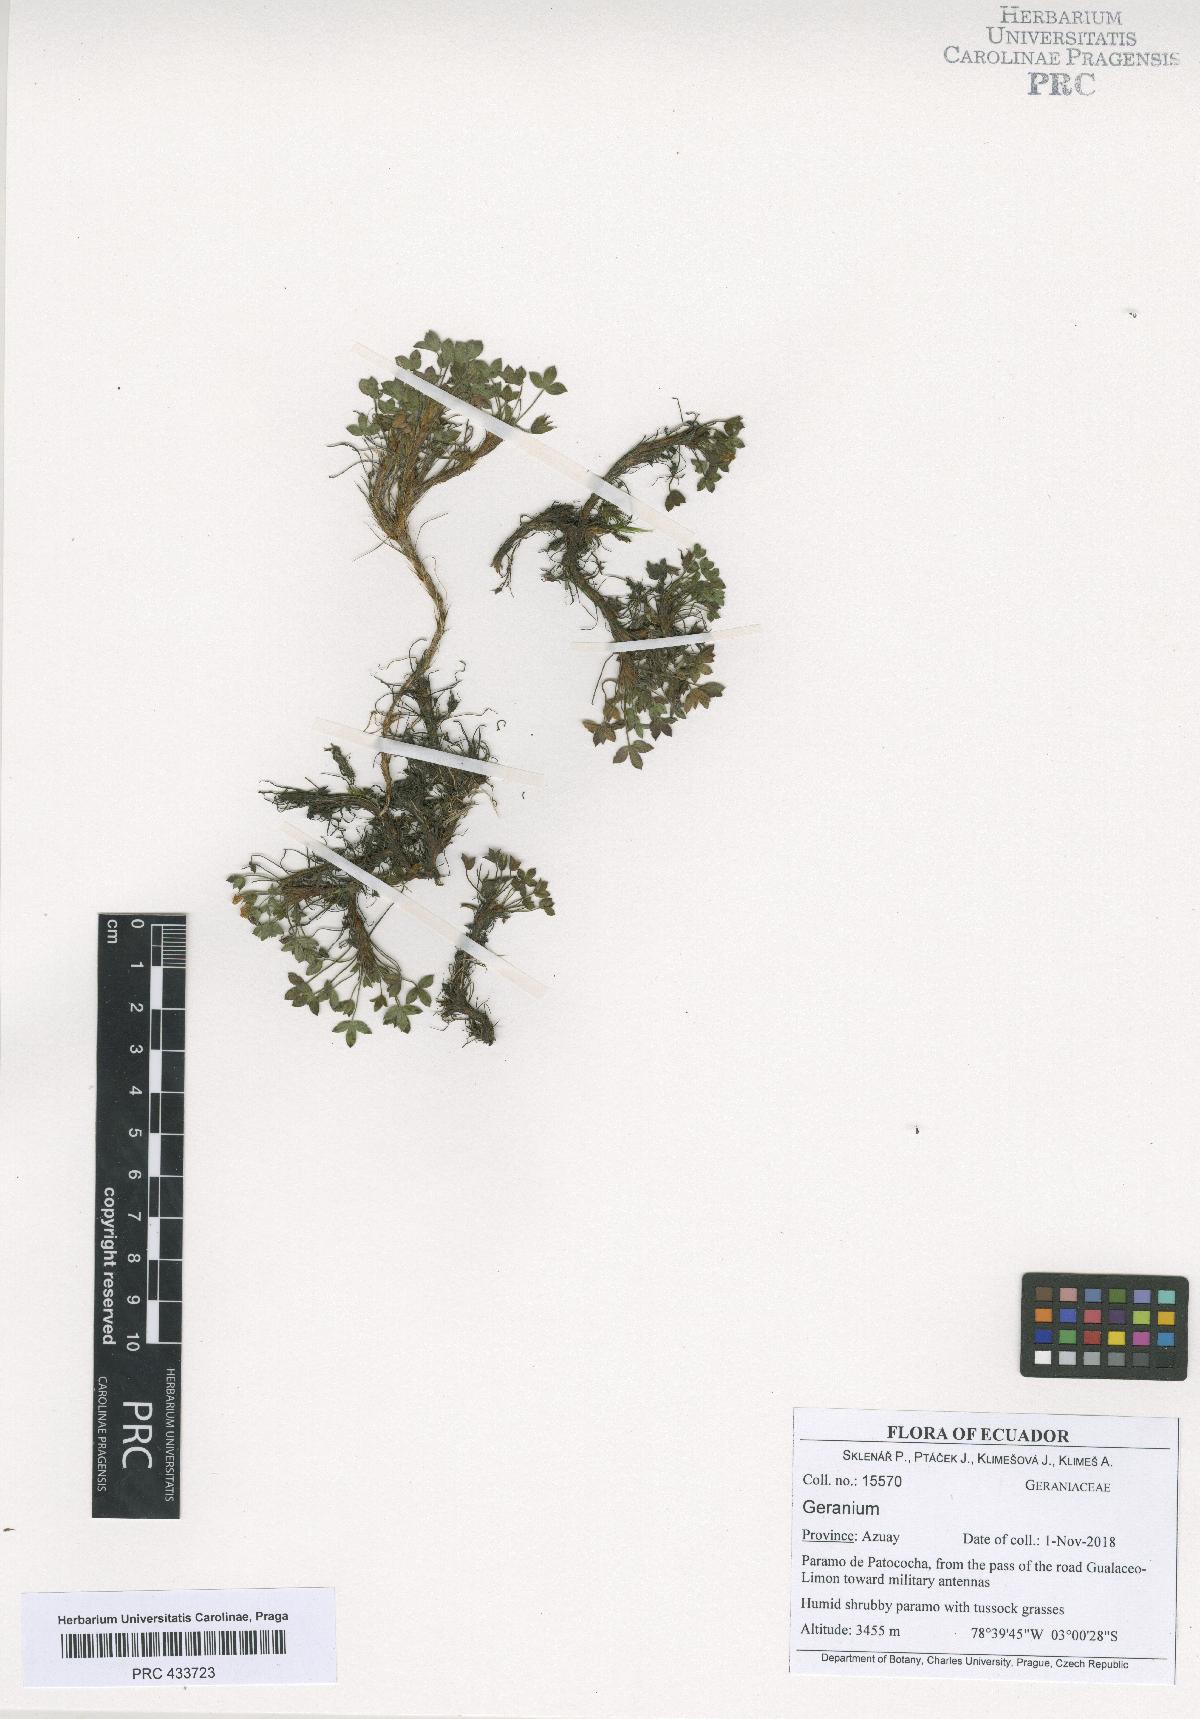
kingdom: Plantae
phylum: Tracheophyta
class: Magnoliopsida
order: Geraniales
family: Geraniaceae
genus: Geranium
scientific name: Geranium campii
